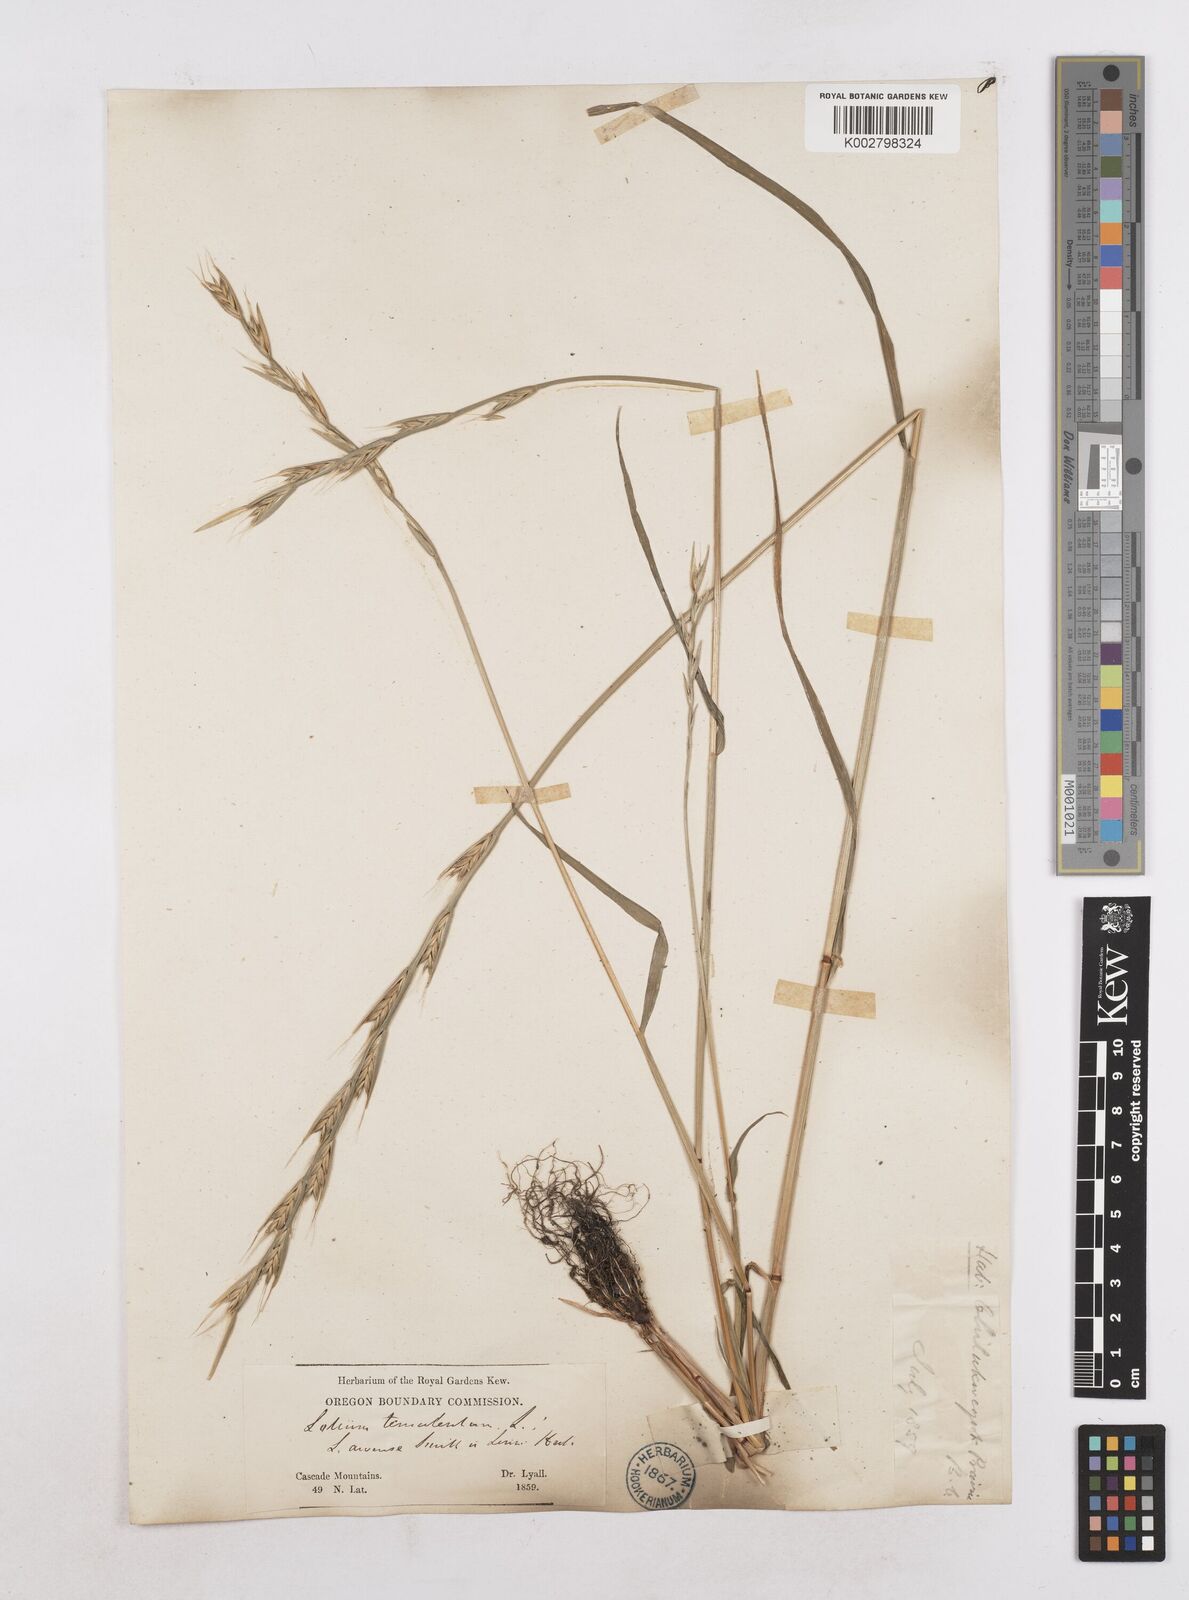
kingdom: Plantae
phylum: Tracheophyta
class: Liliopsida
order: Poales
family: Poaceae
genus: Lolium
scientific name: Lolium temulentum
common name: Darnel
